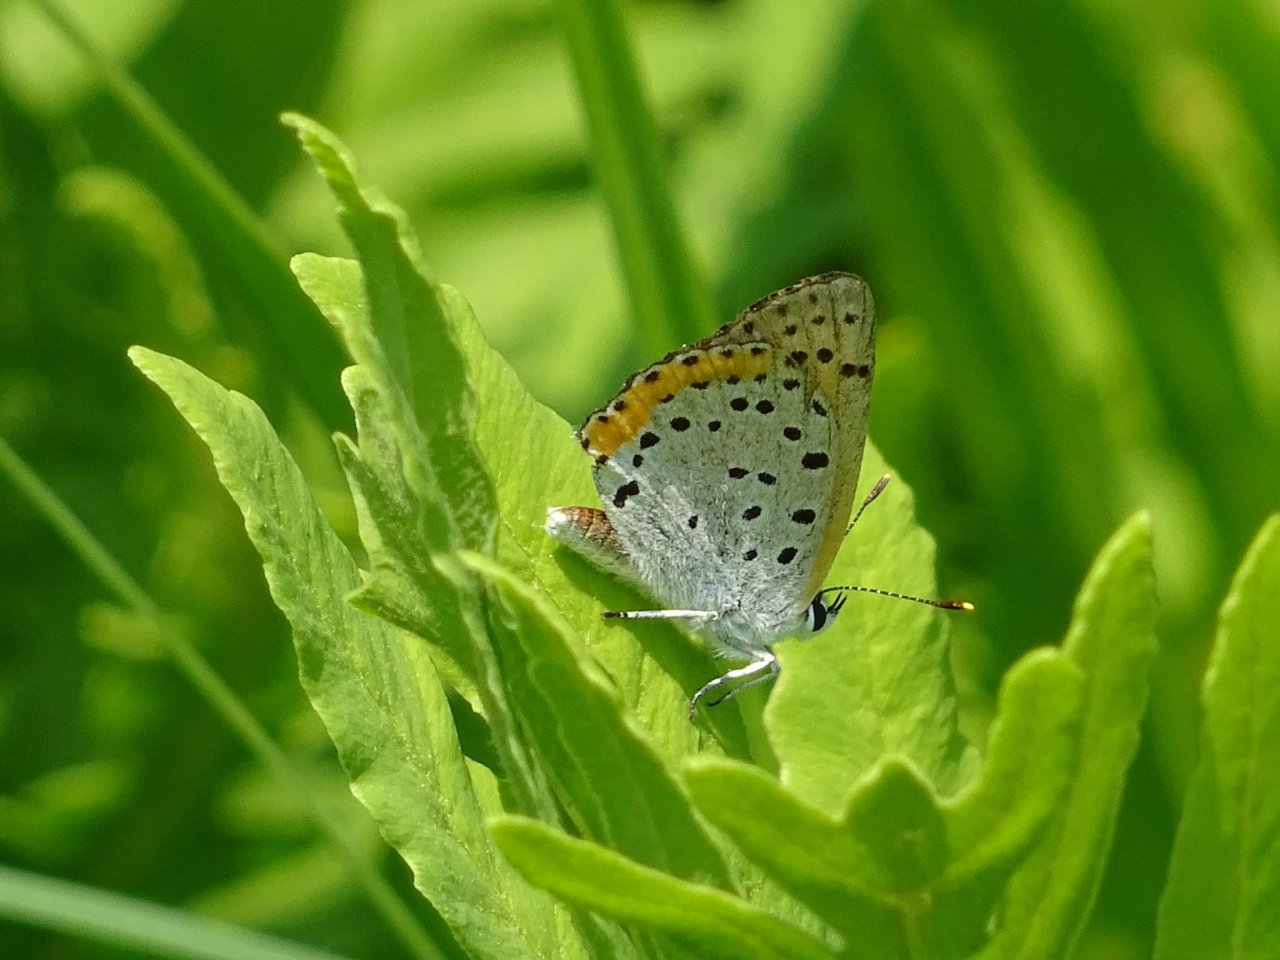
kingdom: Animalia
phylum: Arthropoda
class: Insecta
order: Lepidoptera
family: Sesiidae
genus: Sesia
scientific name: Sesia Lycaena hyllus
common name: Bronze Copper
